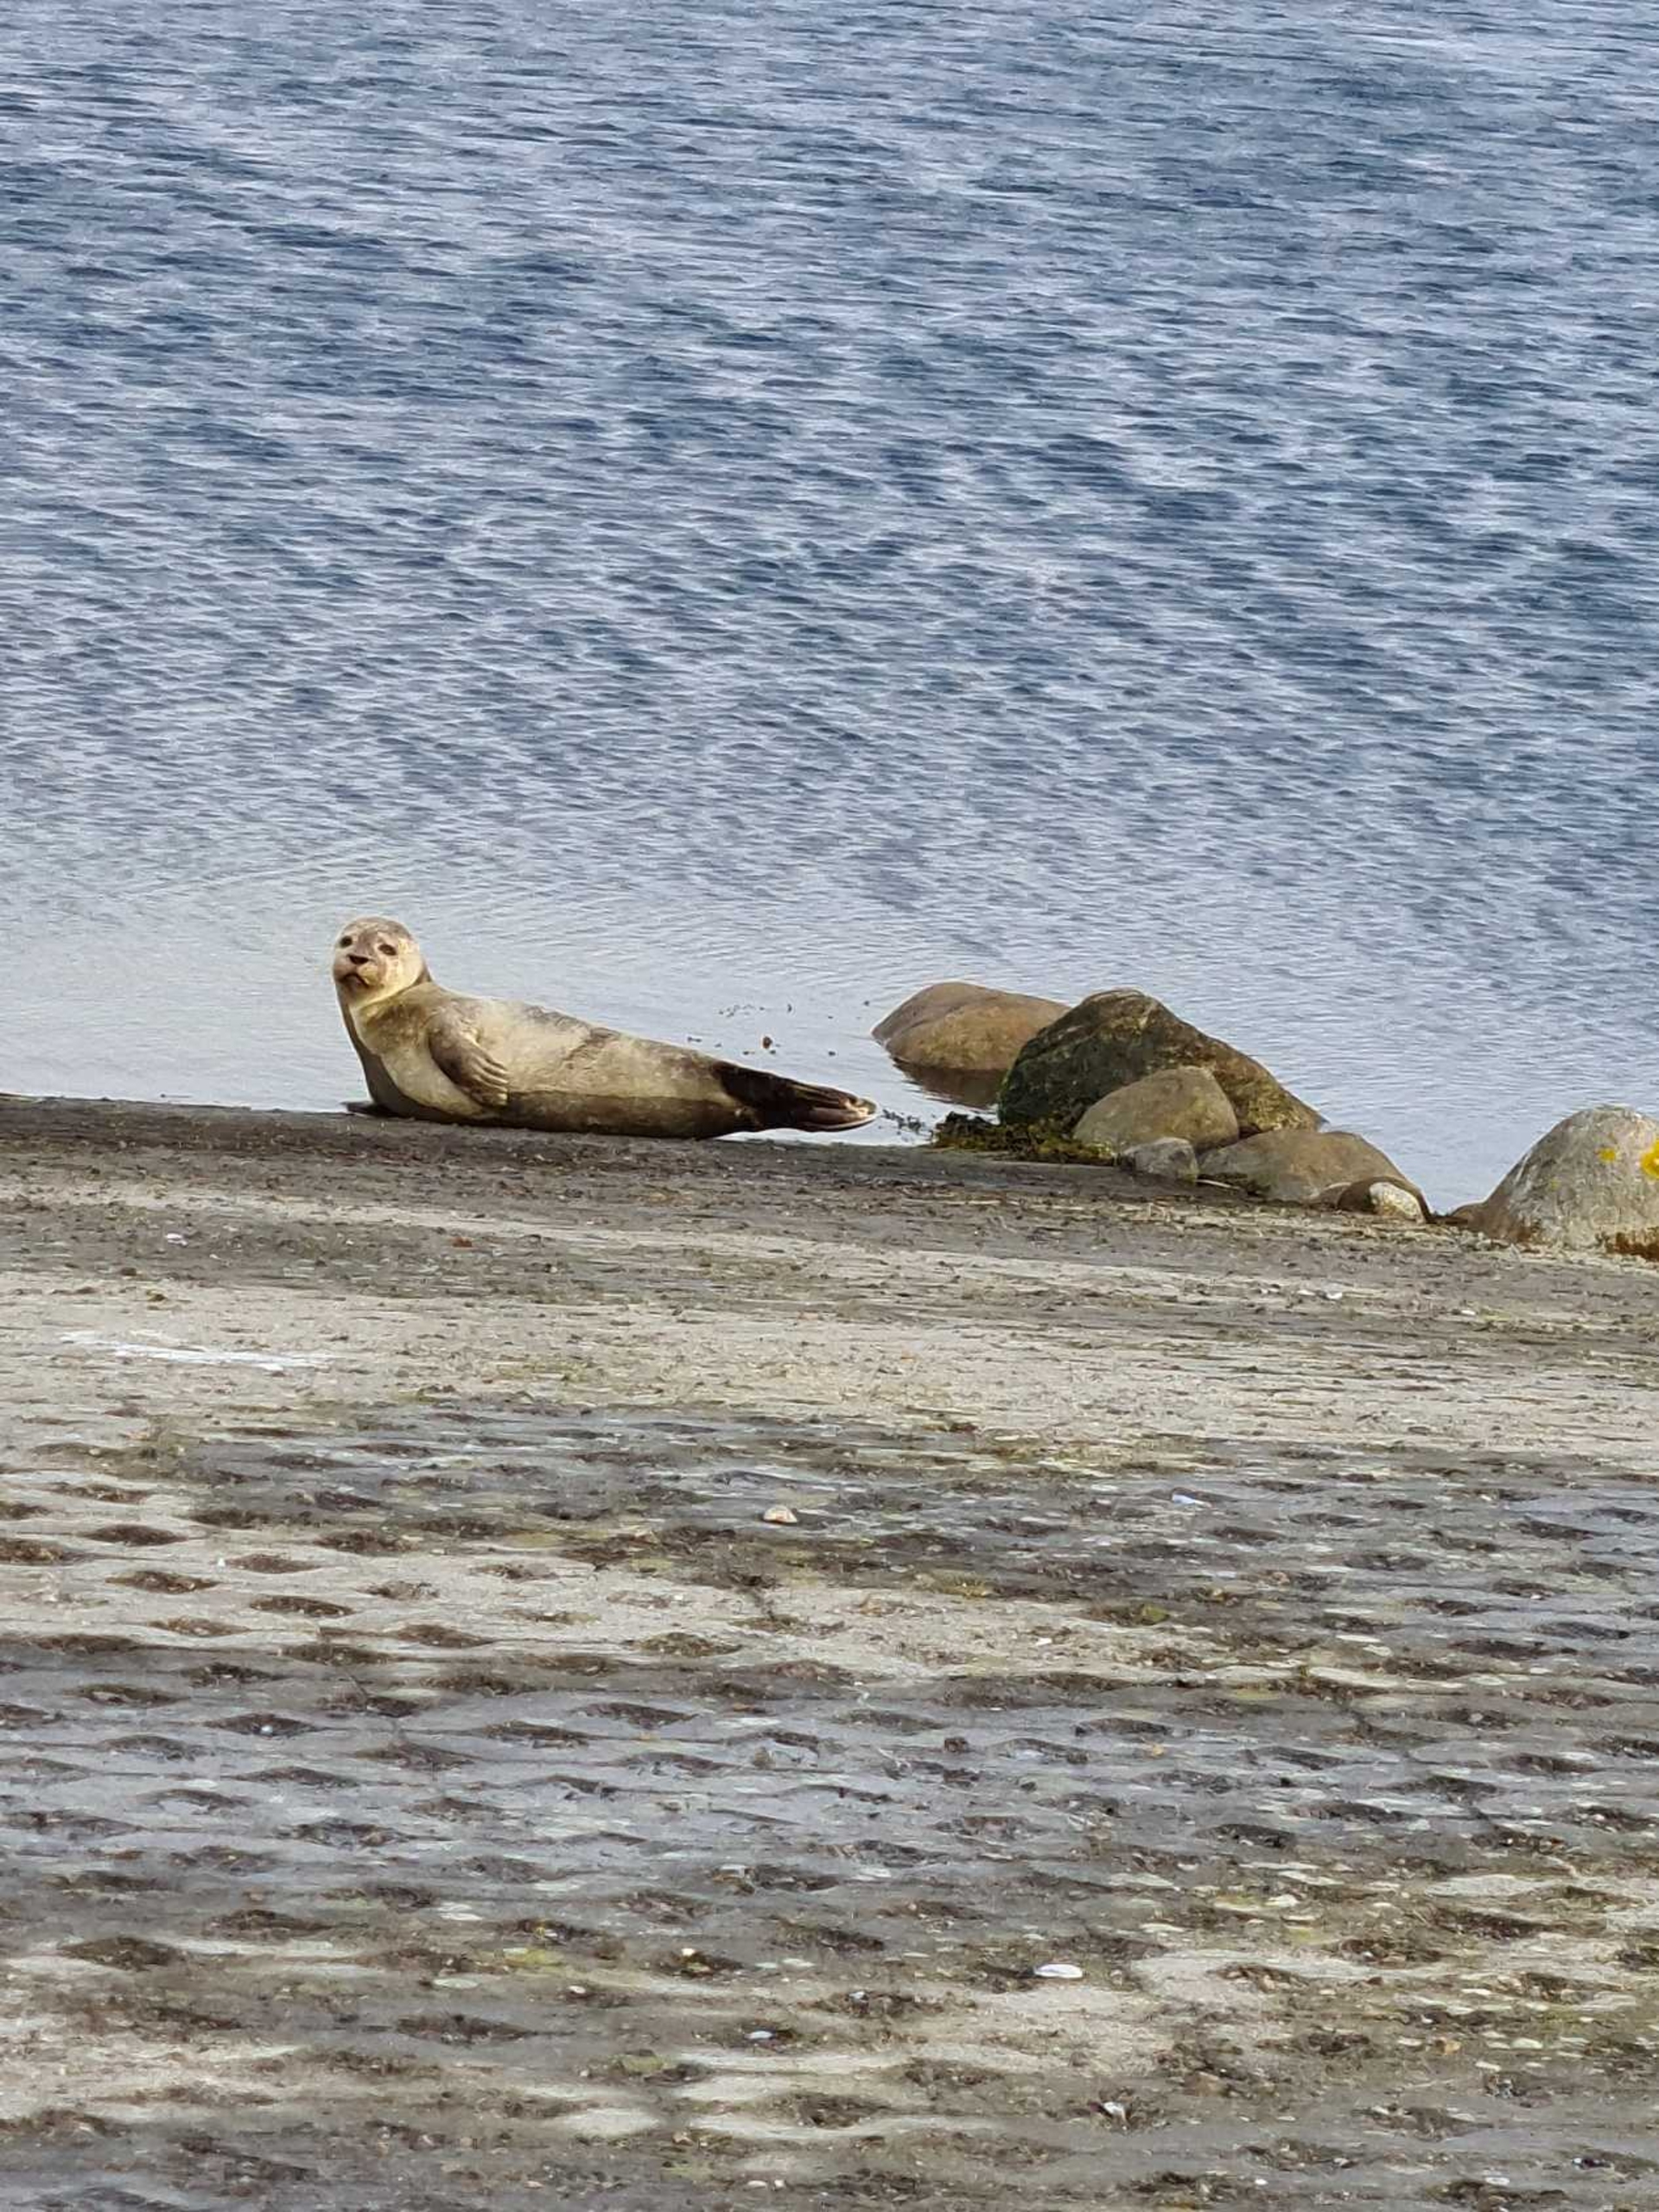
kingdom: Animalia
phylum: Chordata
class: Mammalia
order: Carnivora
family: Phocidae
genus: Halichoerus
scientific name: Halichoerus grypus
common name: Gråsæl
